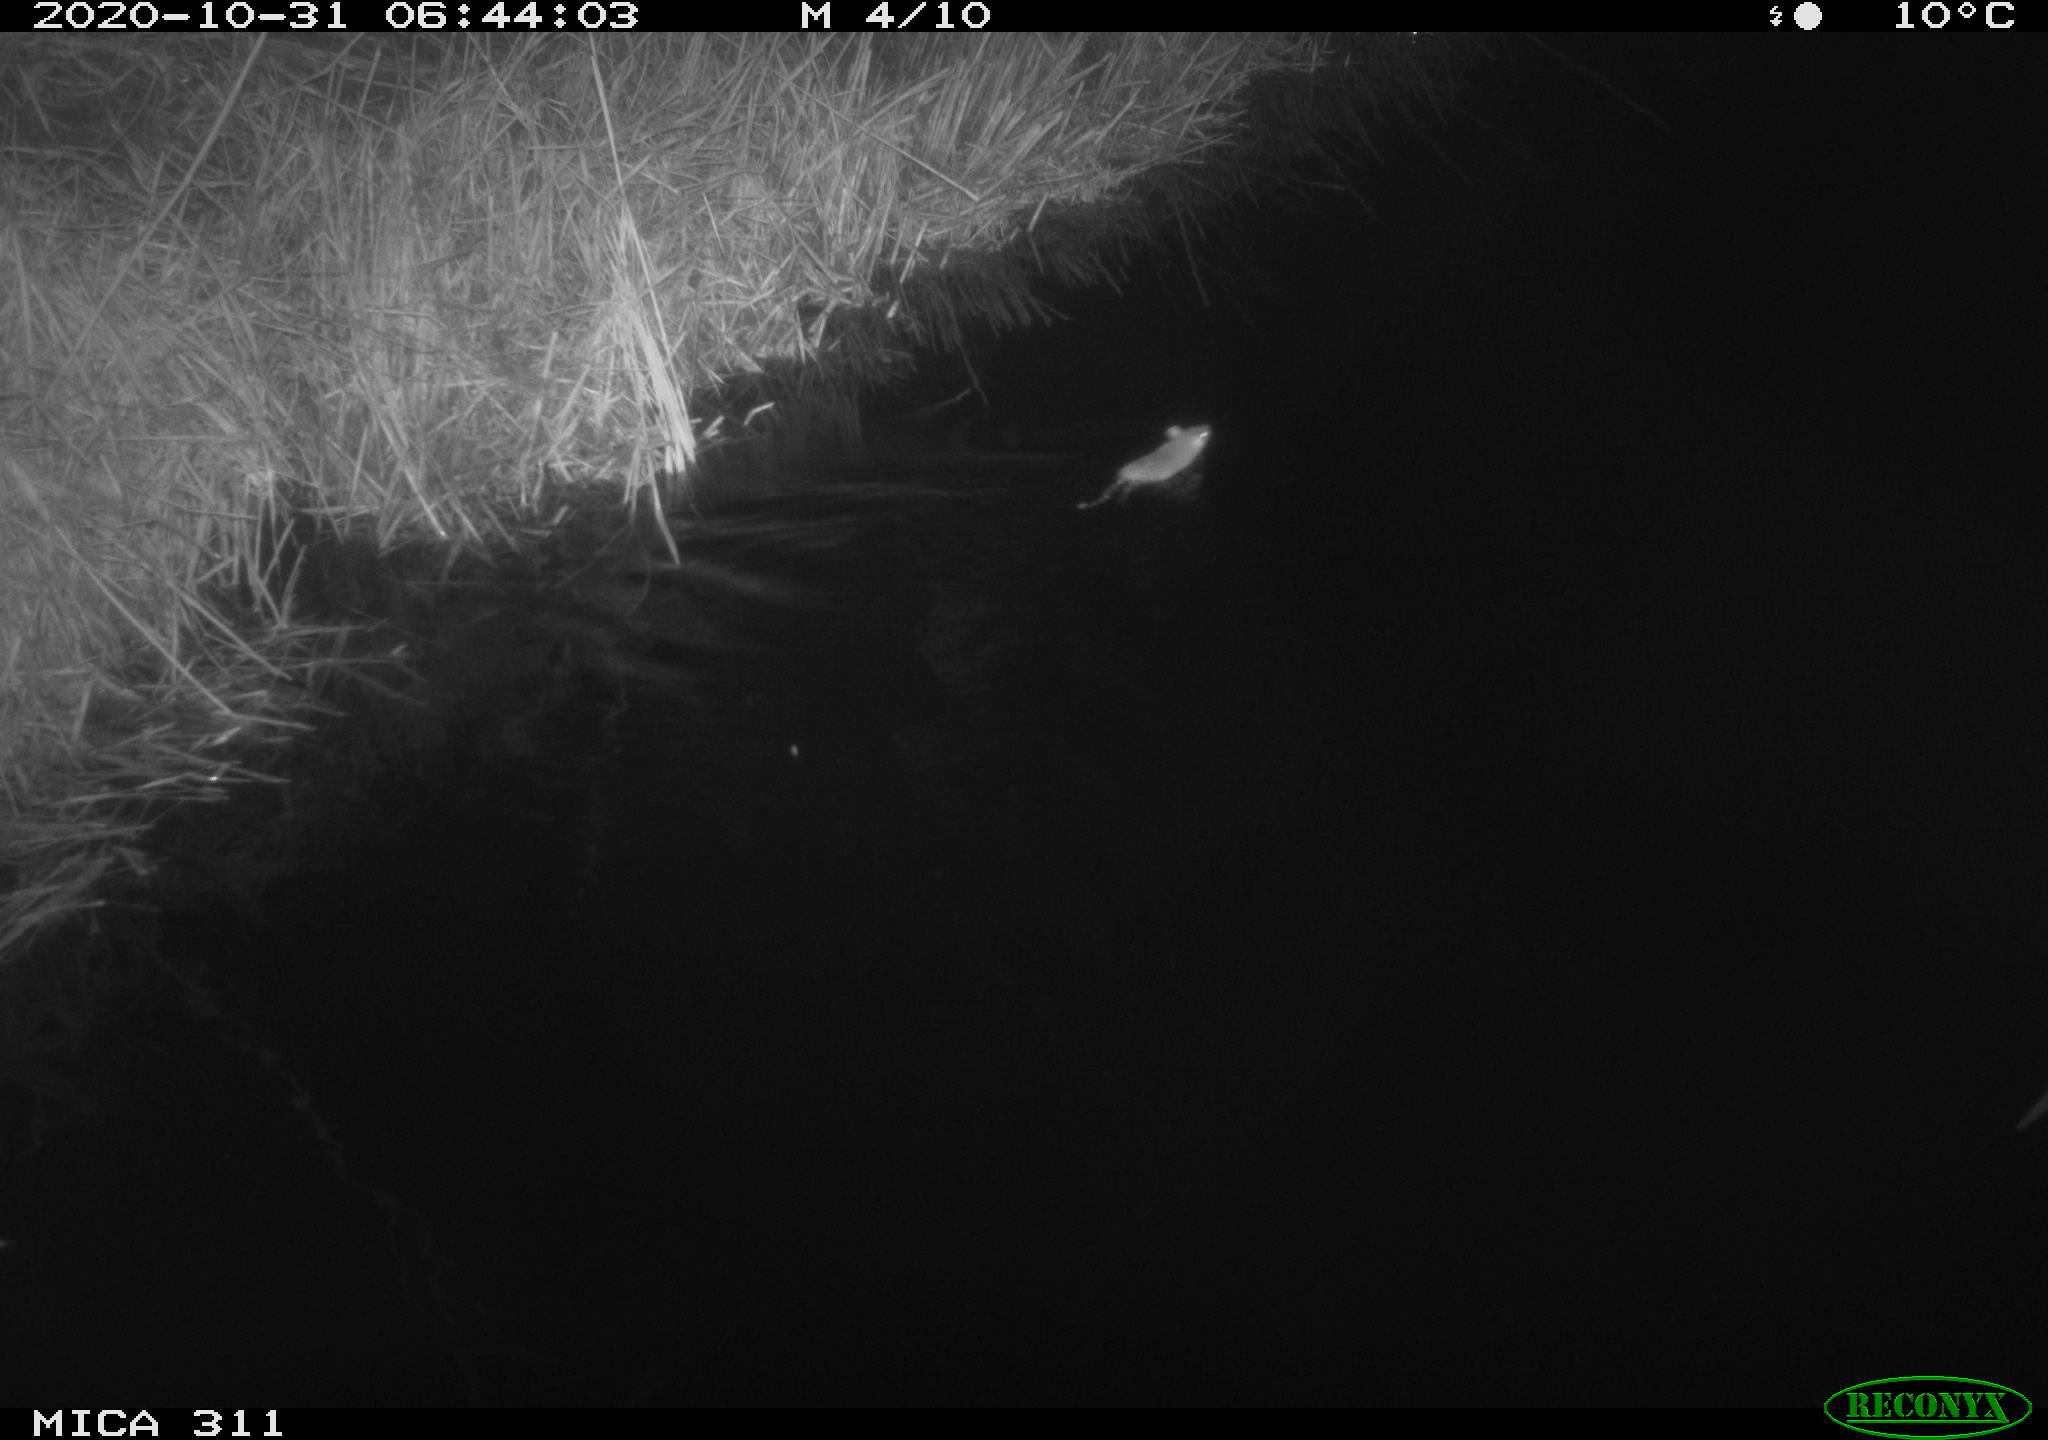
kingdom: Animalia
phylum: Chordata
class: Mammalia
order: Rodentia
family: Muridae
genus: Rattus
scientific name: Rattus norvegicus
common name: Brown rat
